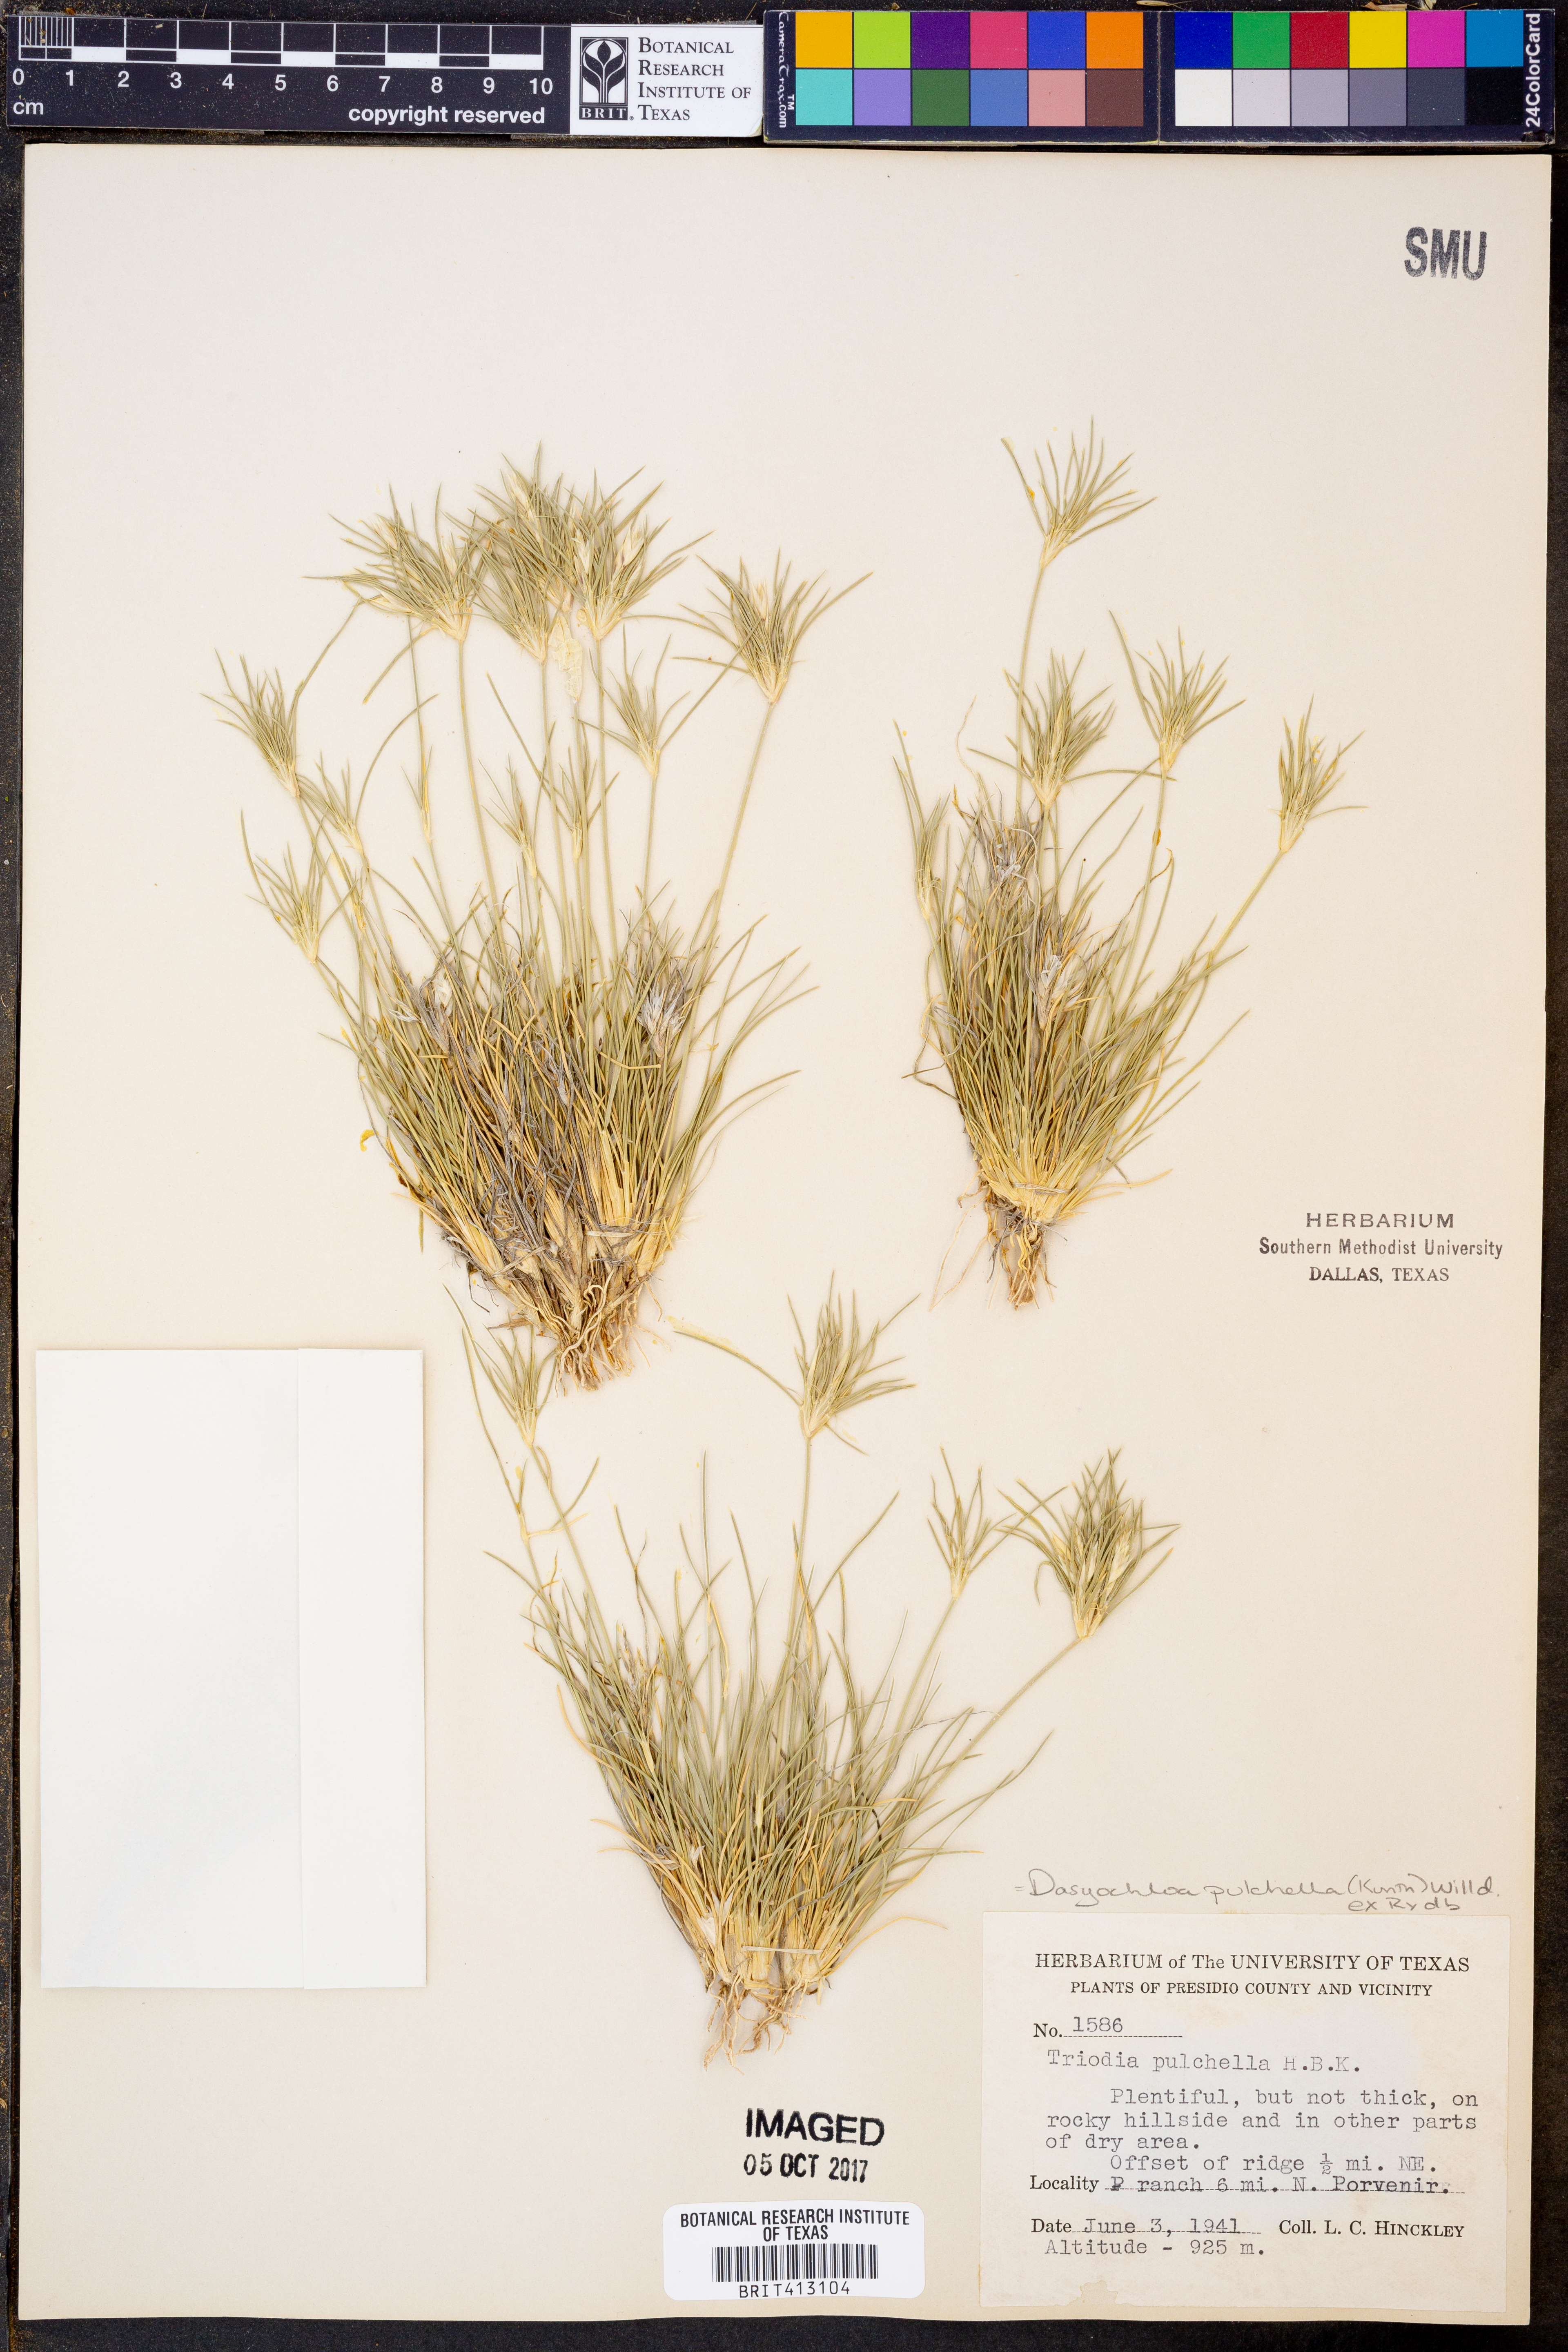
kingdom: Plantae
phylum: Tracheophyta
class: Liliopsida
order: Poales
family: Poaceae
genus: Munroa
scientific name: Munroa pulchella
